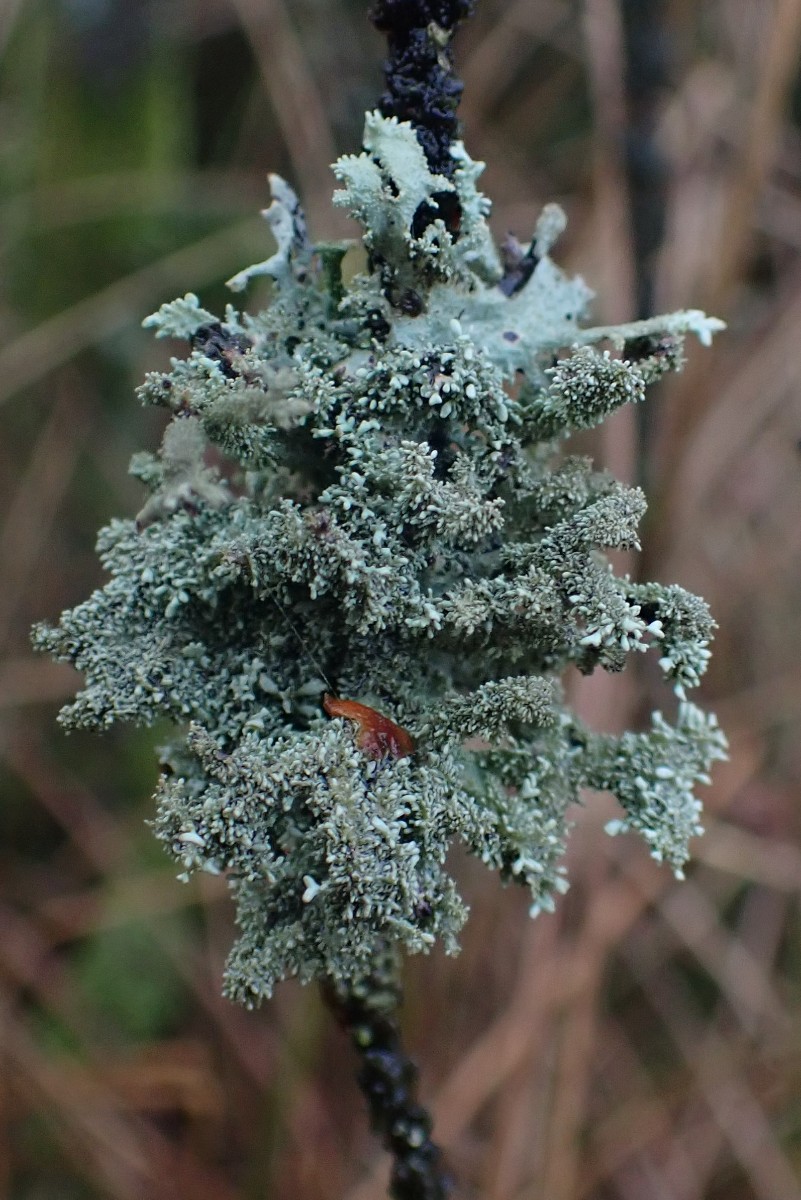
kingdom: Fungi
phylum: Ascomycota
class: Lecanoromycetes
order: Lecanorales
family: Parmeliaceae
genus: Pseudevernia
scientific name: Pseudevernia furfuracea
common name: grå fyrrelav
